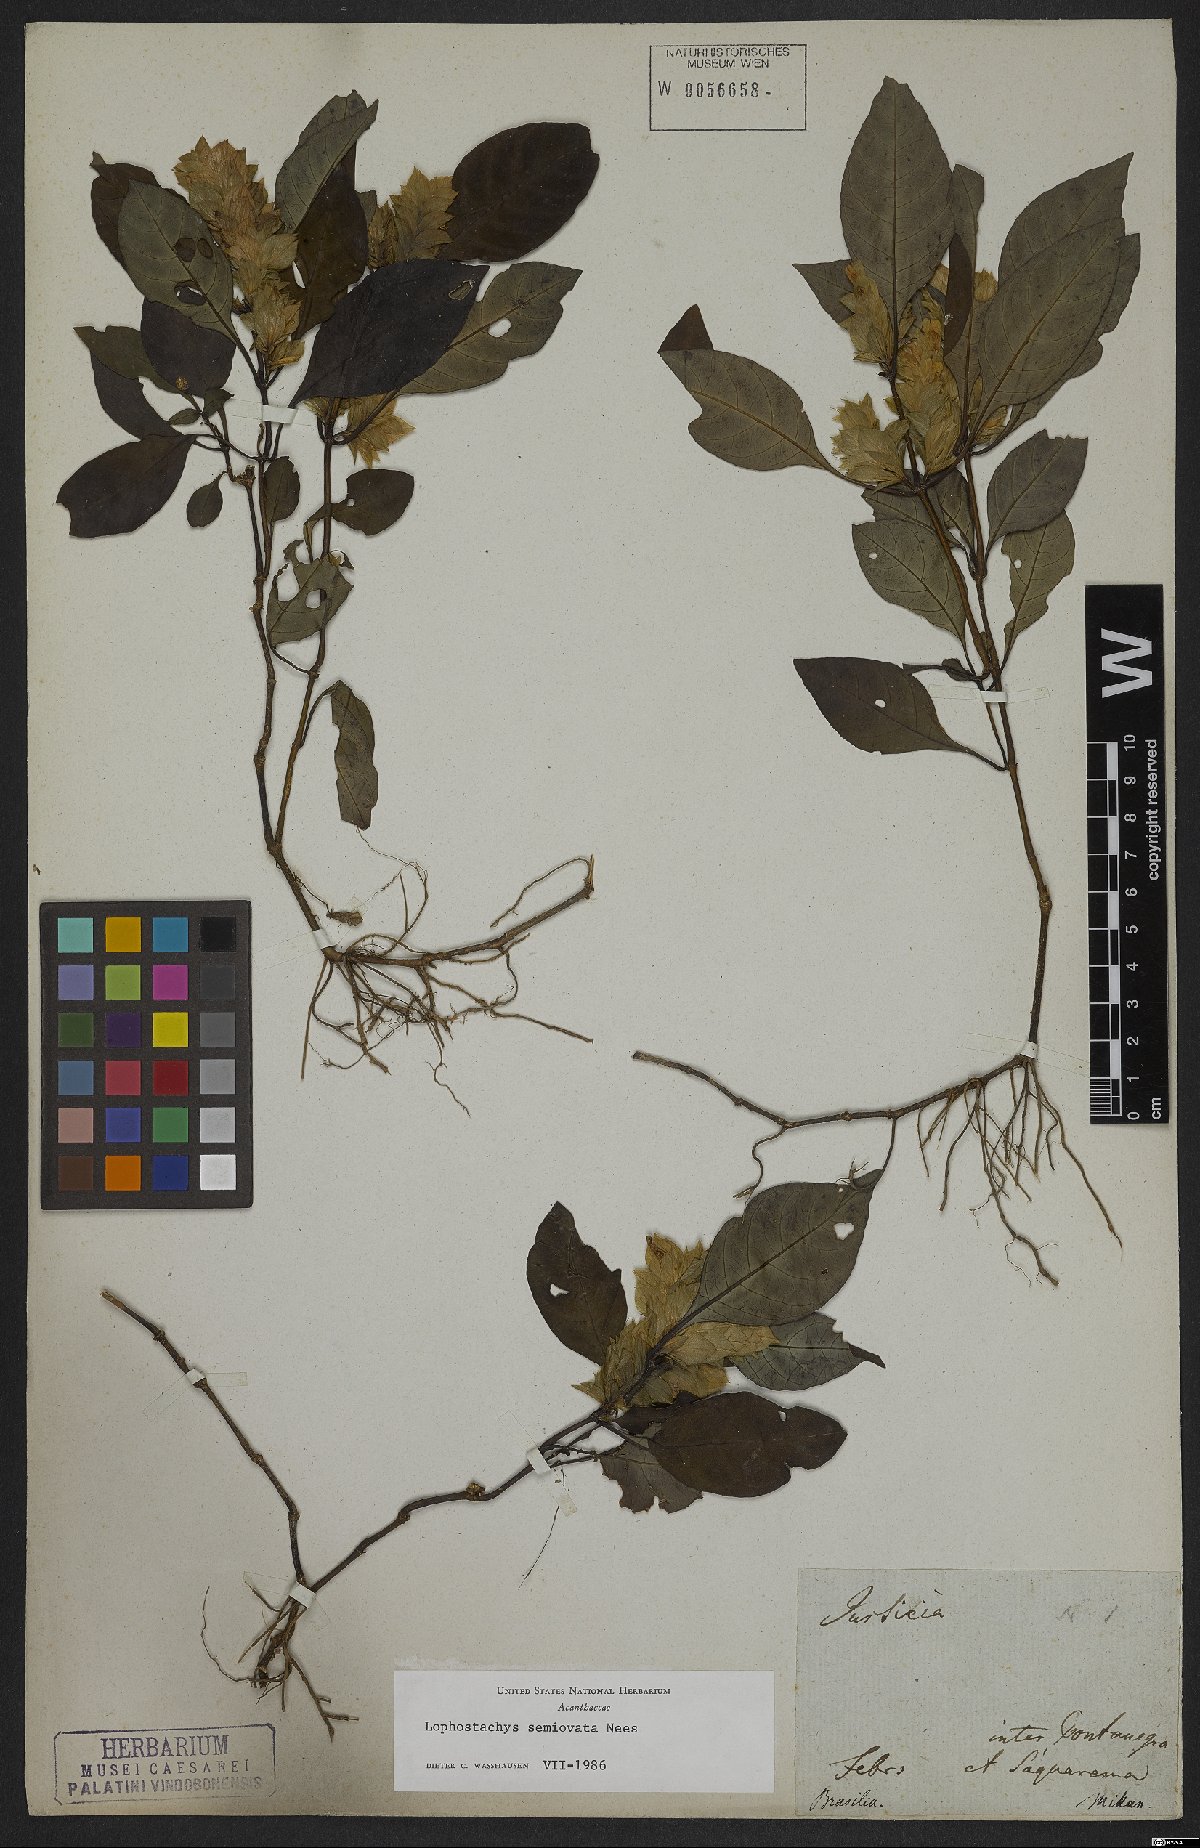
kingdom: Plantae
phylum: Tracheophyta
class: Magnoliopsida
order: Lamiales
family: Acanthaceae
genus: Lepidagathis
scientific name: Lepidagathis nemoralis
